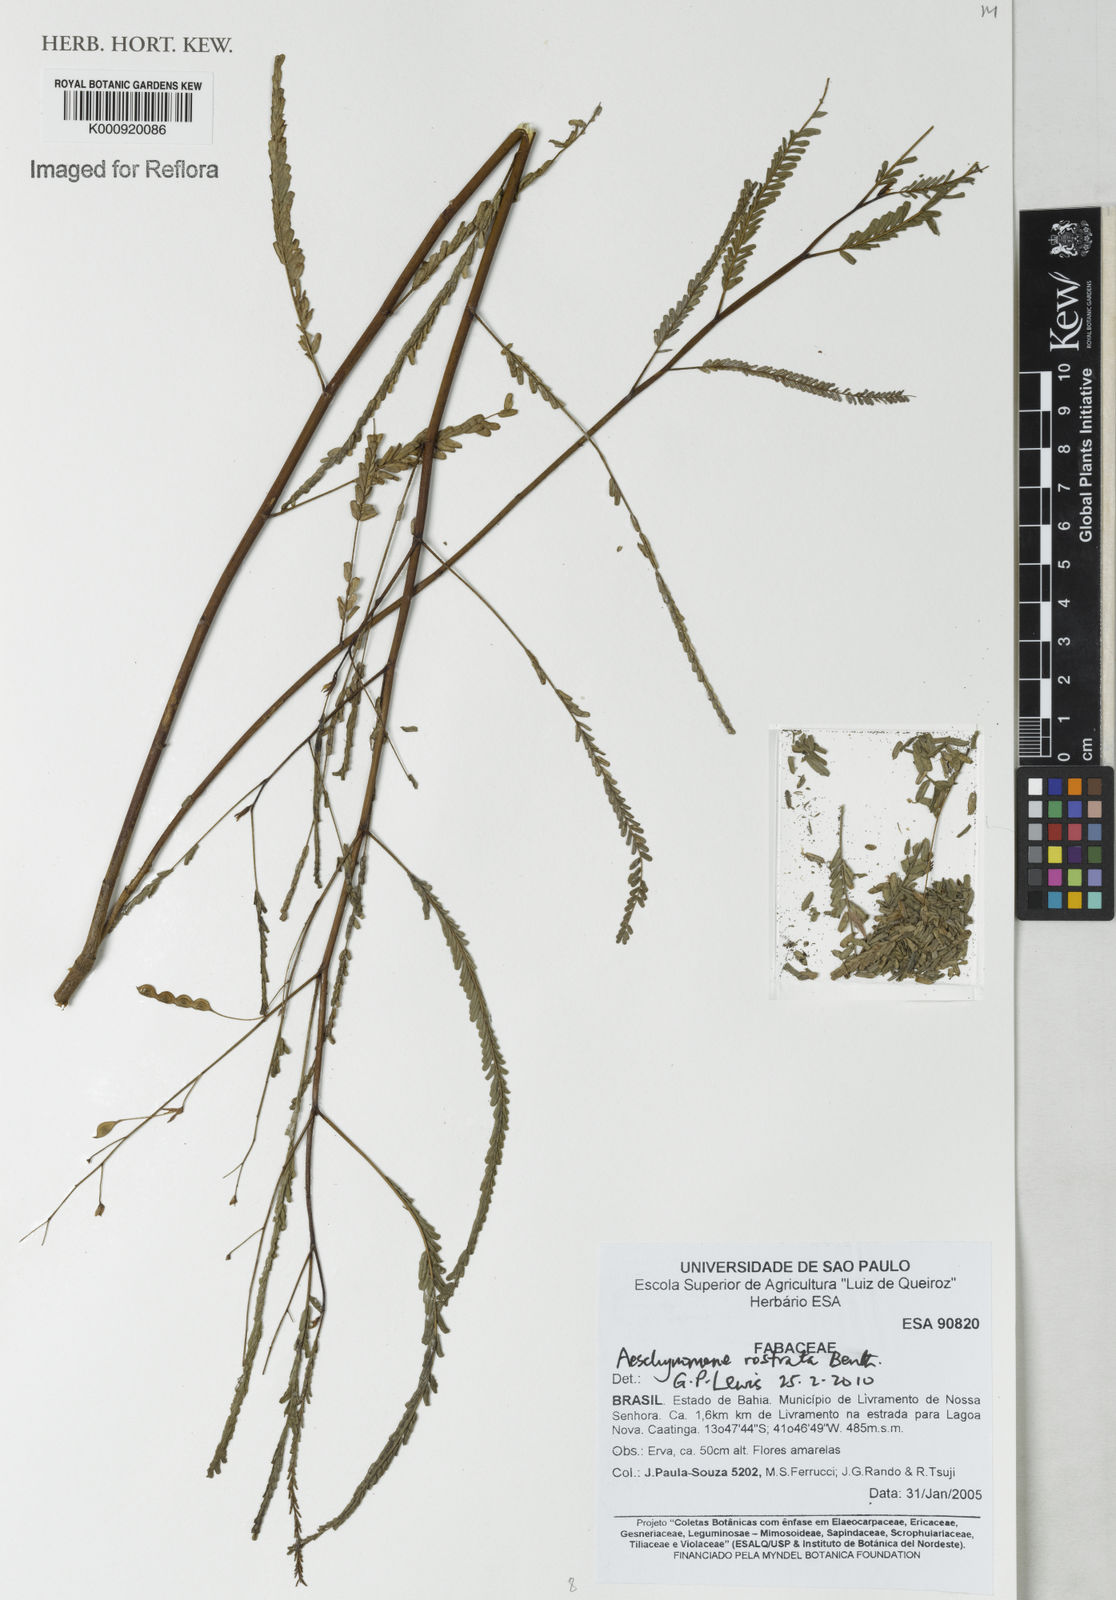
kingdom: Plantae
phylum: Tracheophyta
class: Magnoliopsida
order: Fabales
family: Fabaceae
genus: Aeschynomene
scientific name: Aeschynomene rostrata
